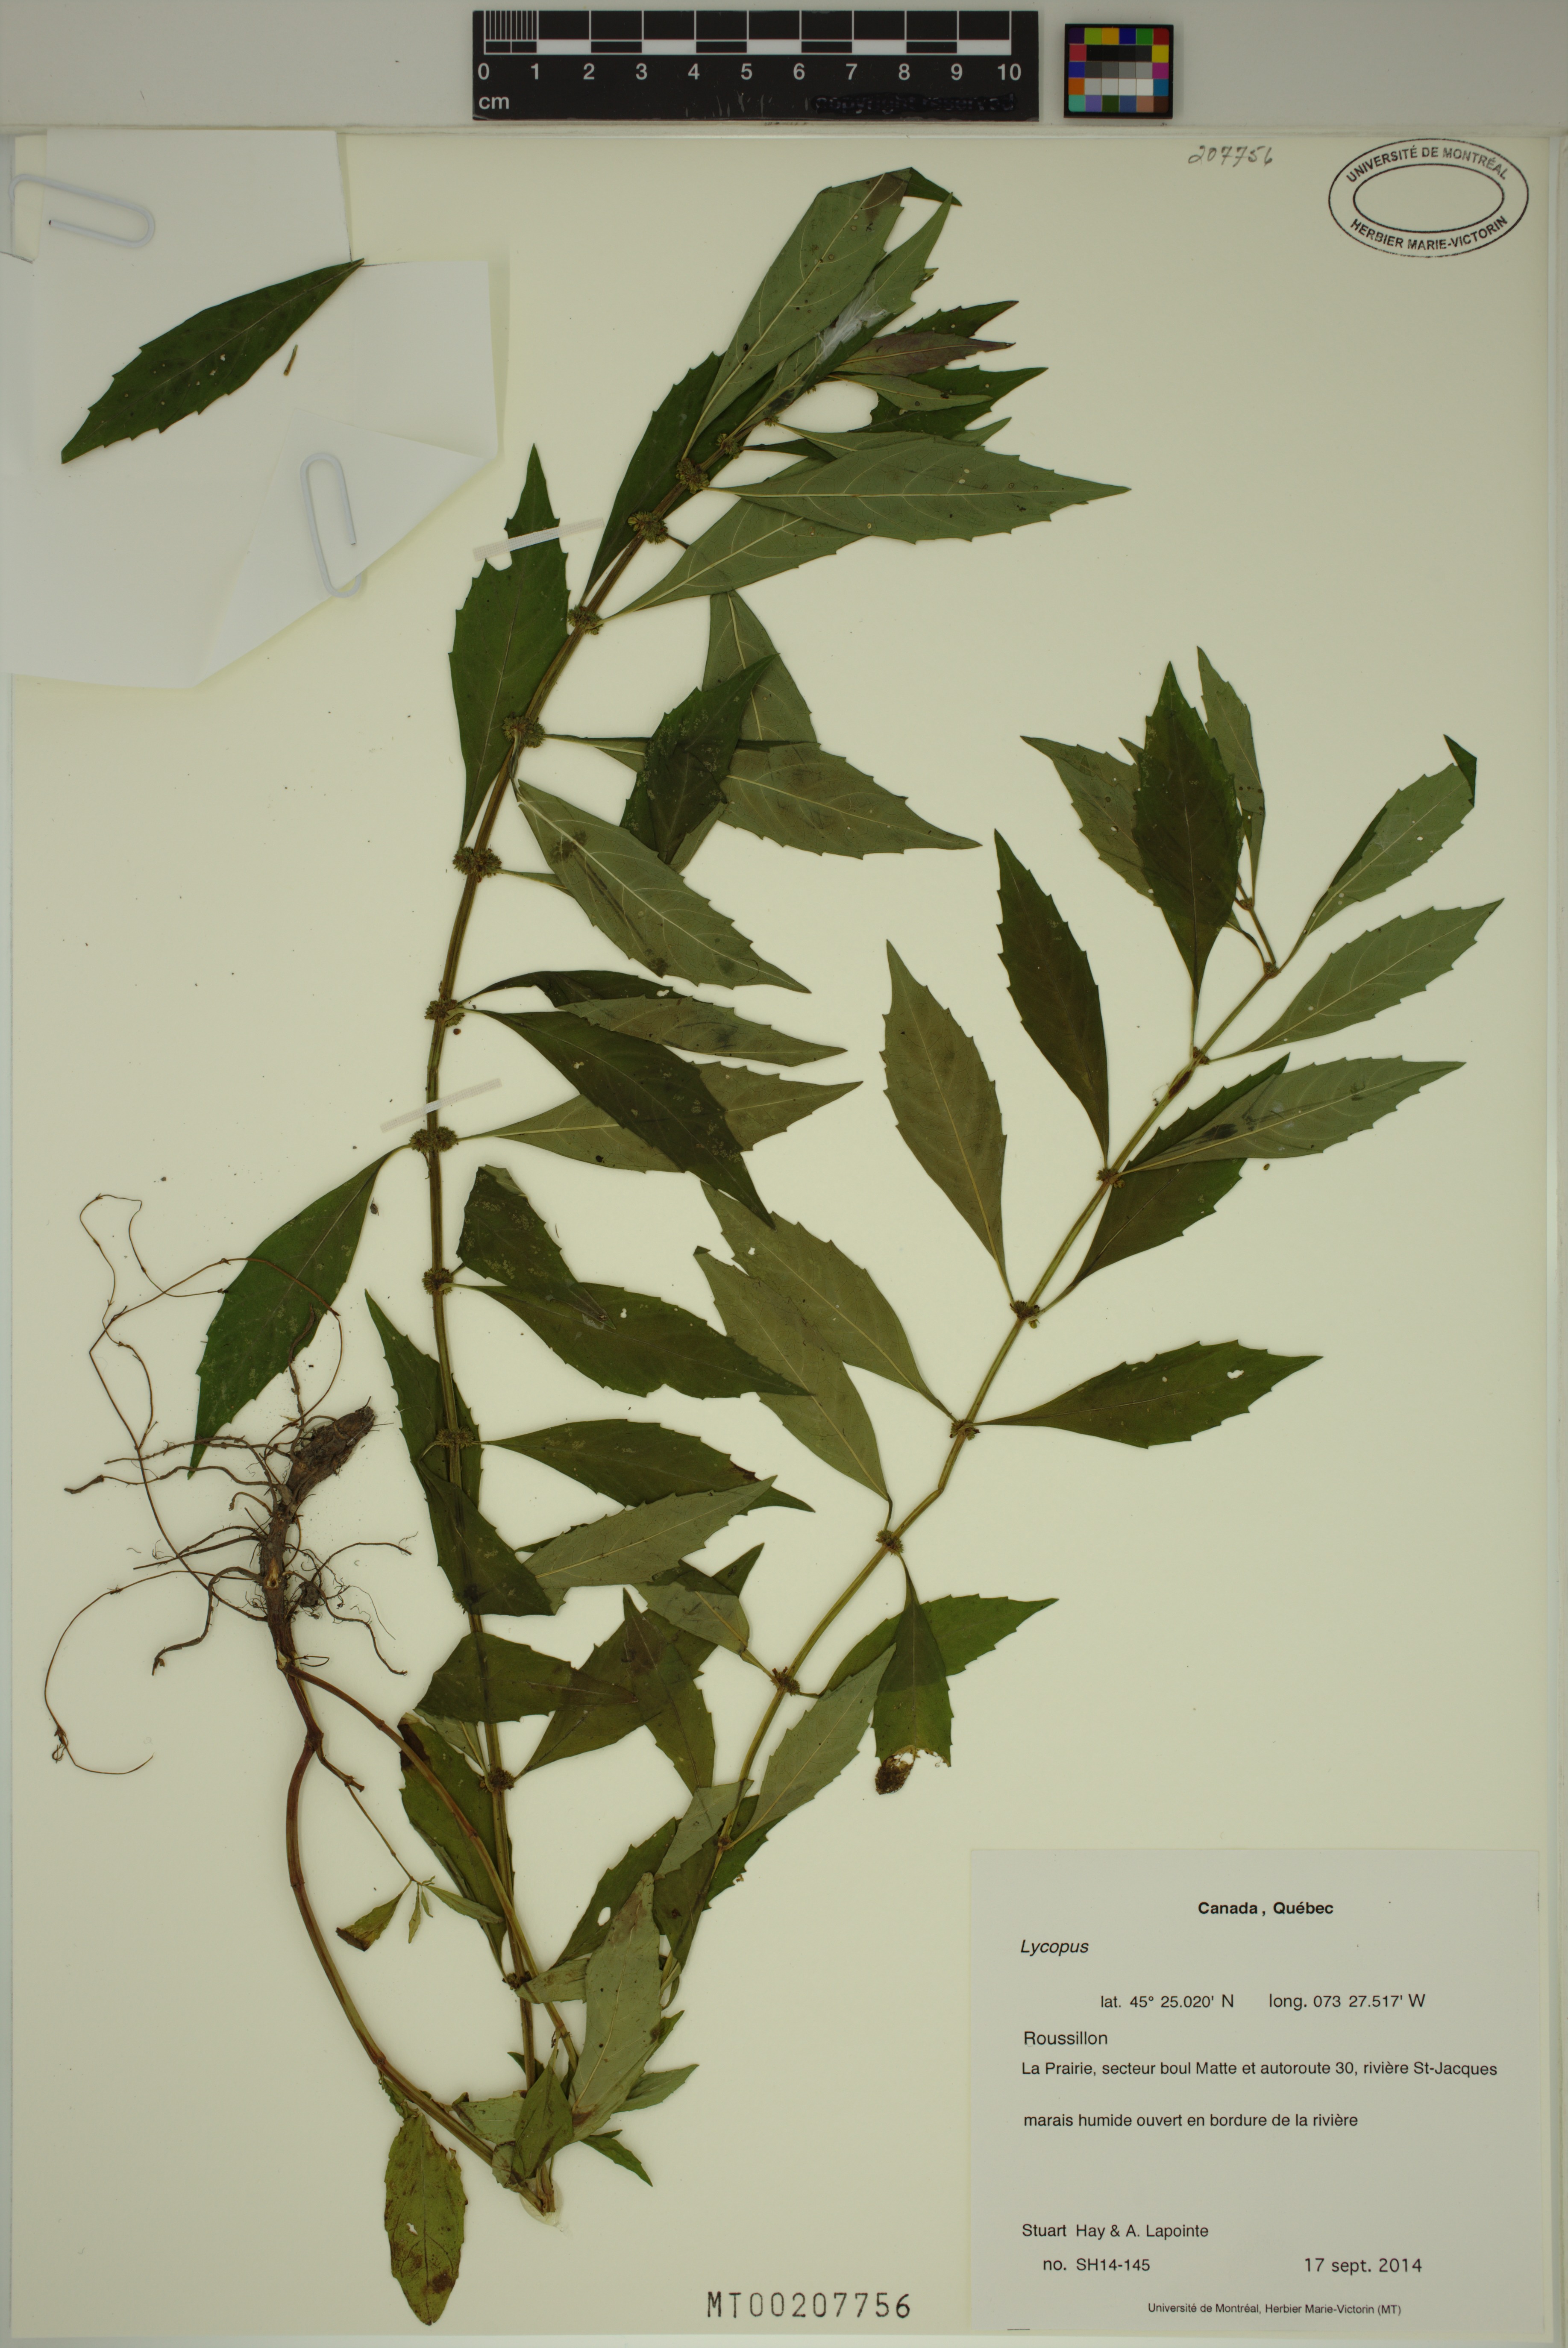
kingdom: Plantae
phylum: Tracheophyta
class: Magnoliopsida
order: Lamiales
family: Lamiaceae
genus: Lycopus
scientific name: Lycopus
